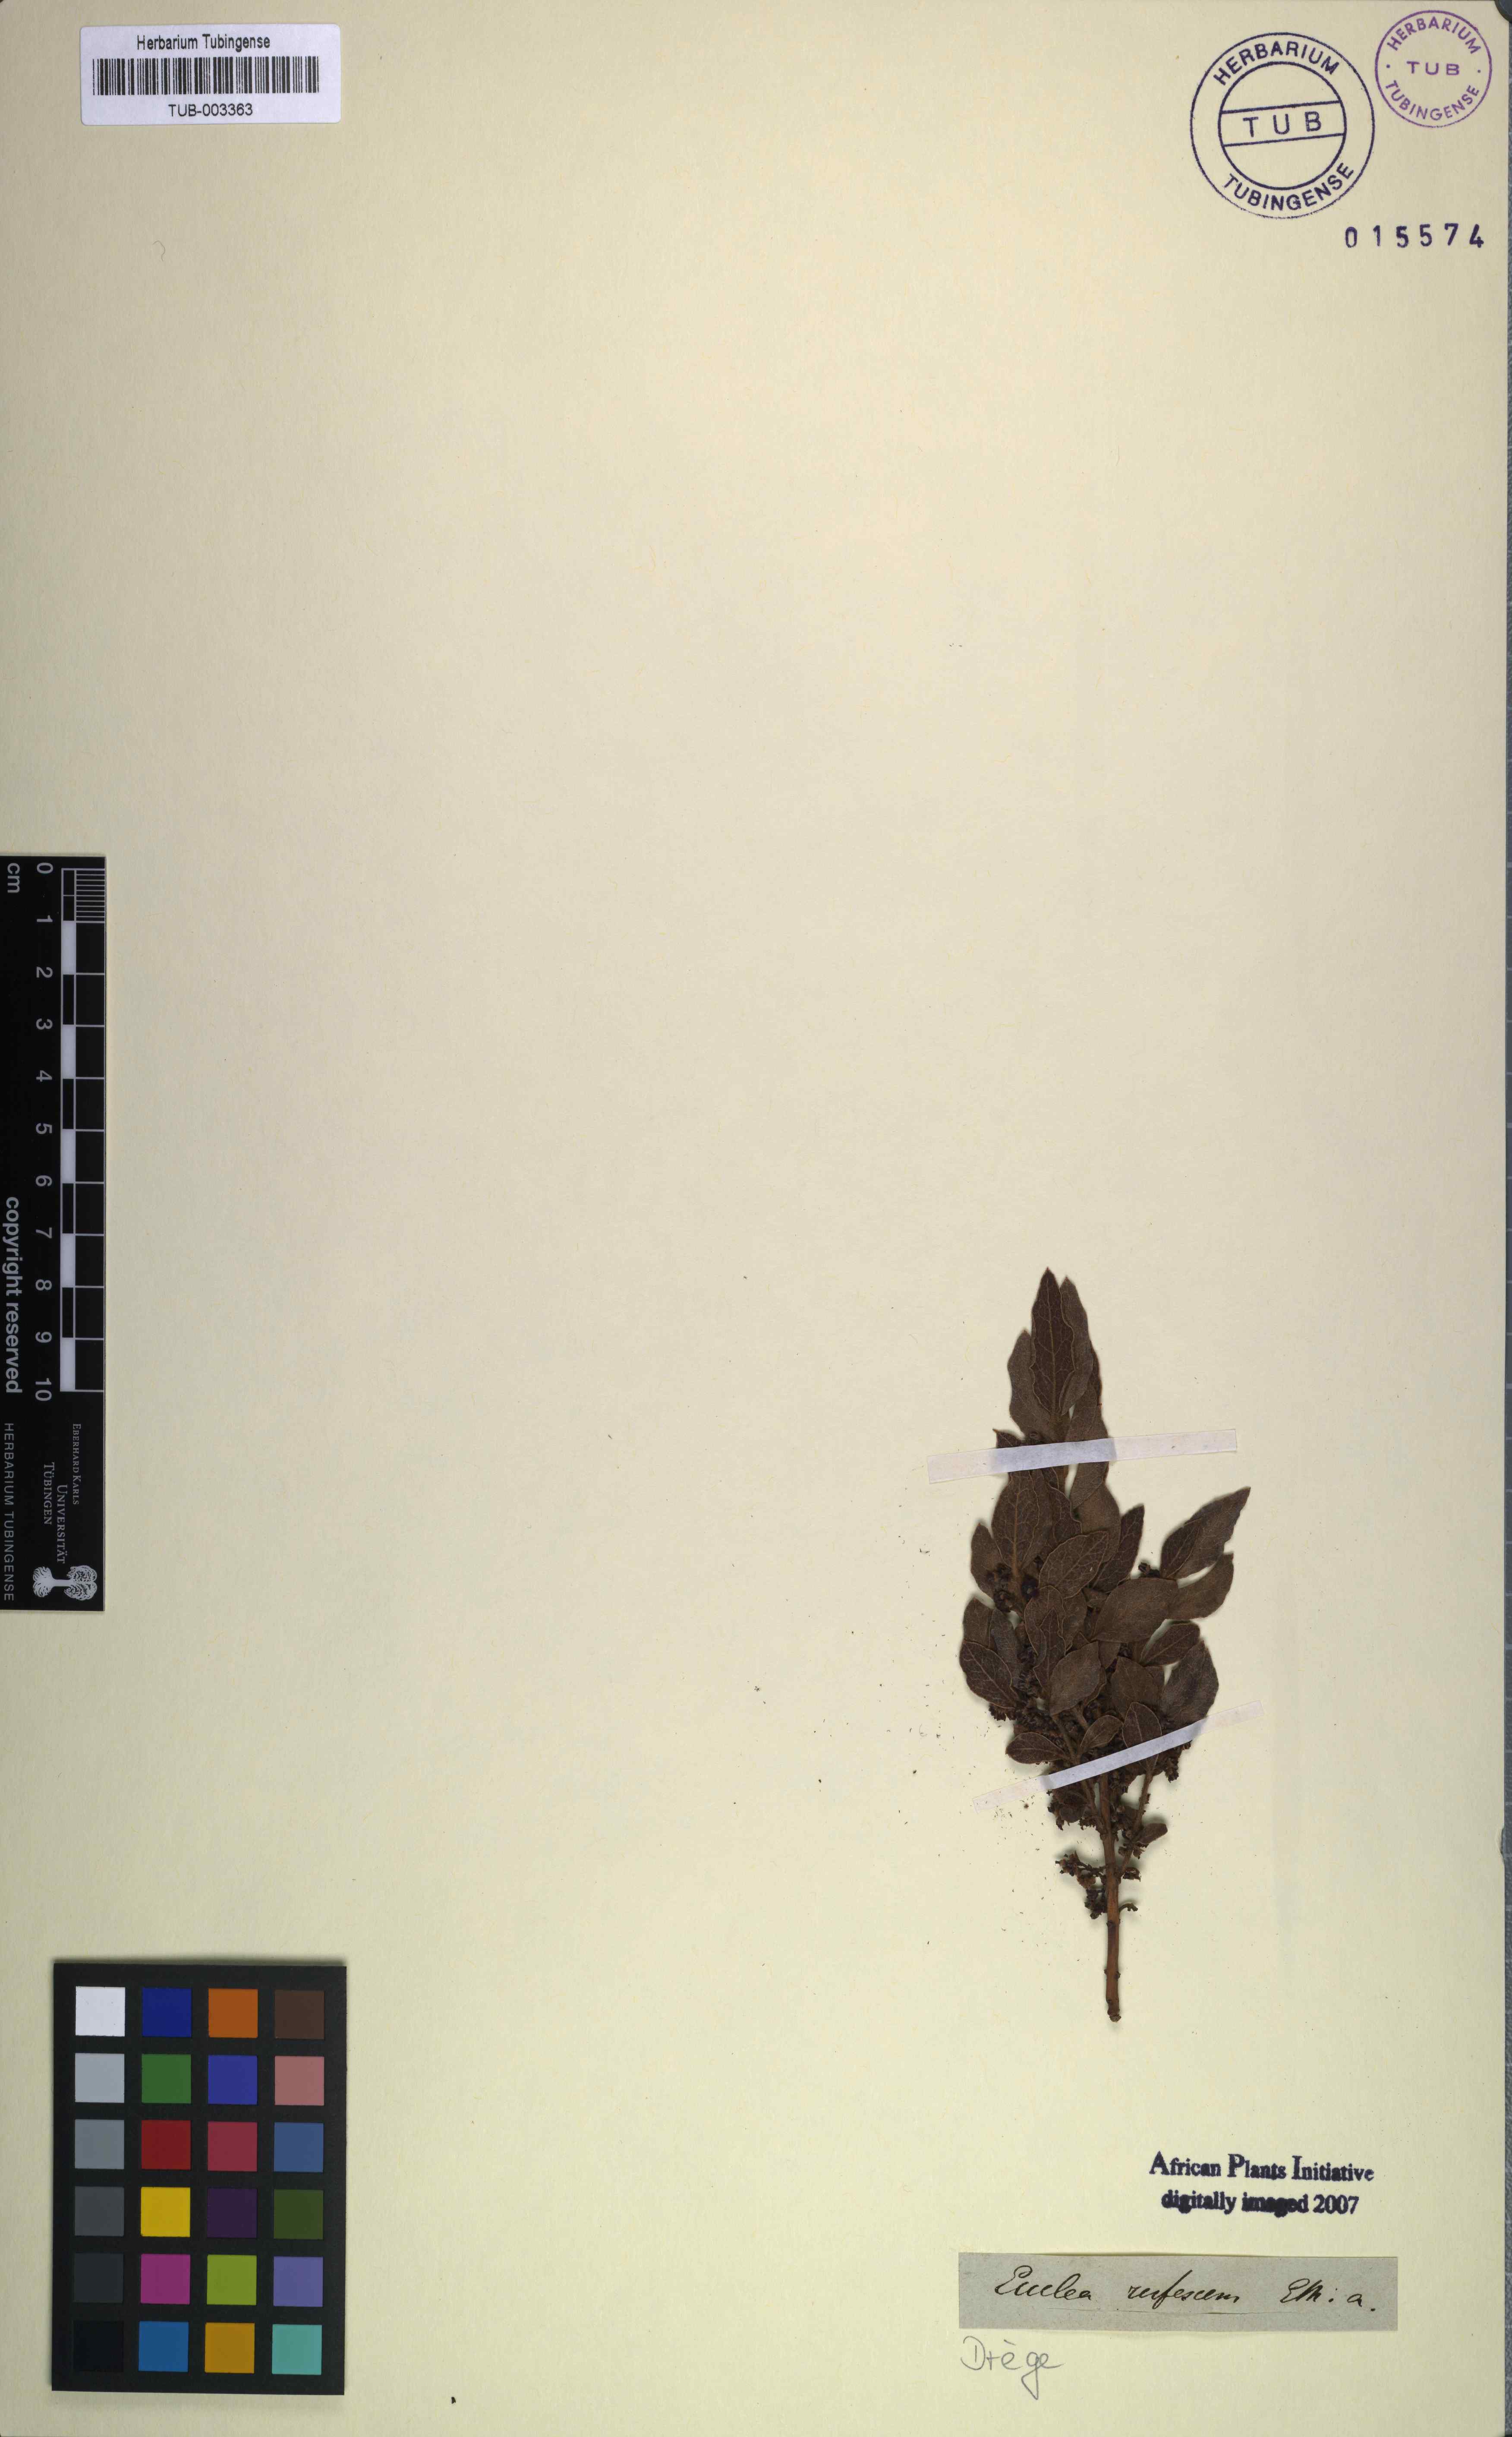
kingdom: Plantae
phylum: Tracheophyta
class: Magnoliopsida
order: Ericales
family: Ebenaceae
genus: Euclea
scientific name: Euclea crispa
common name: Blue guarri
